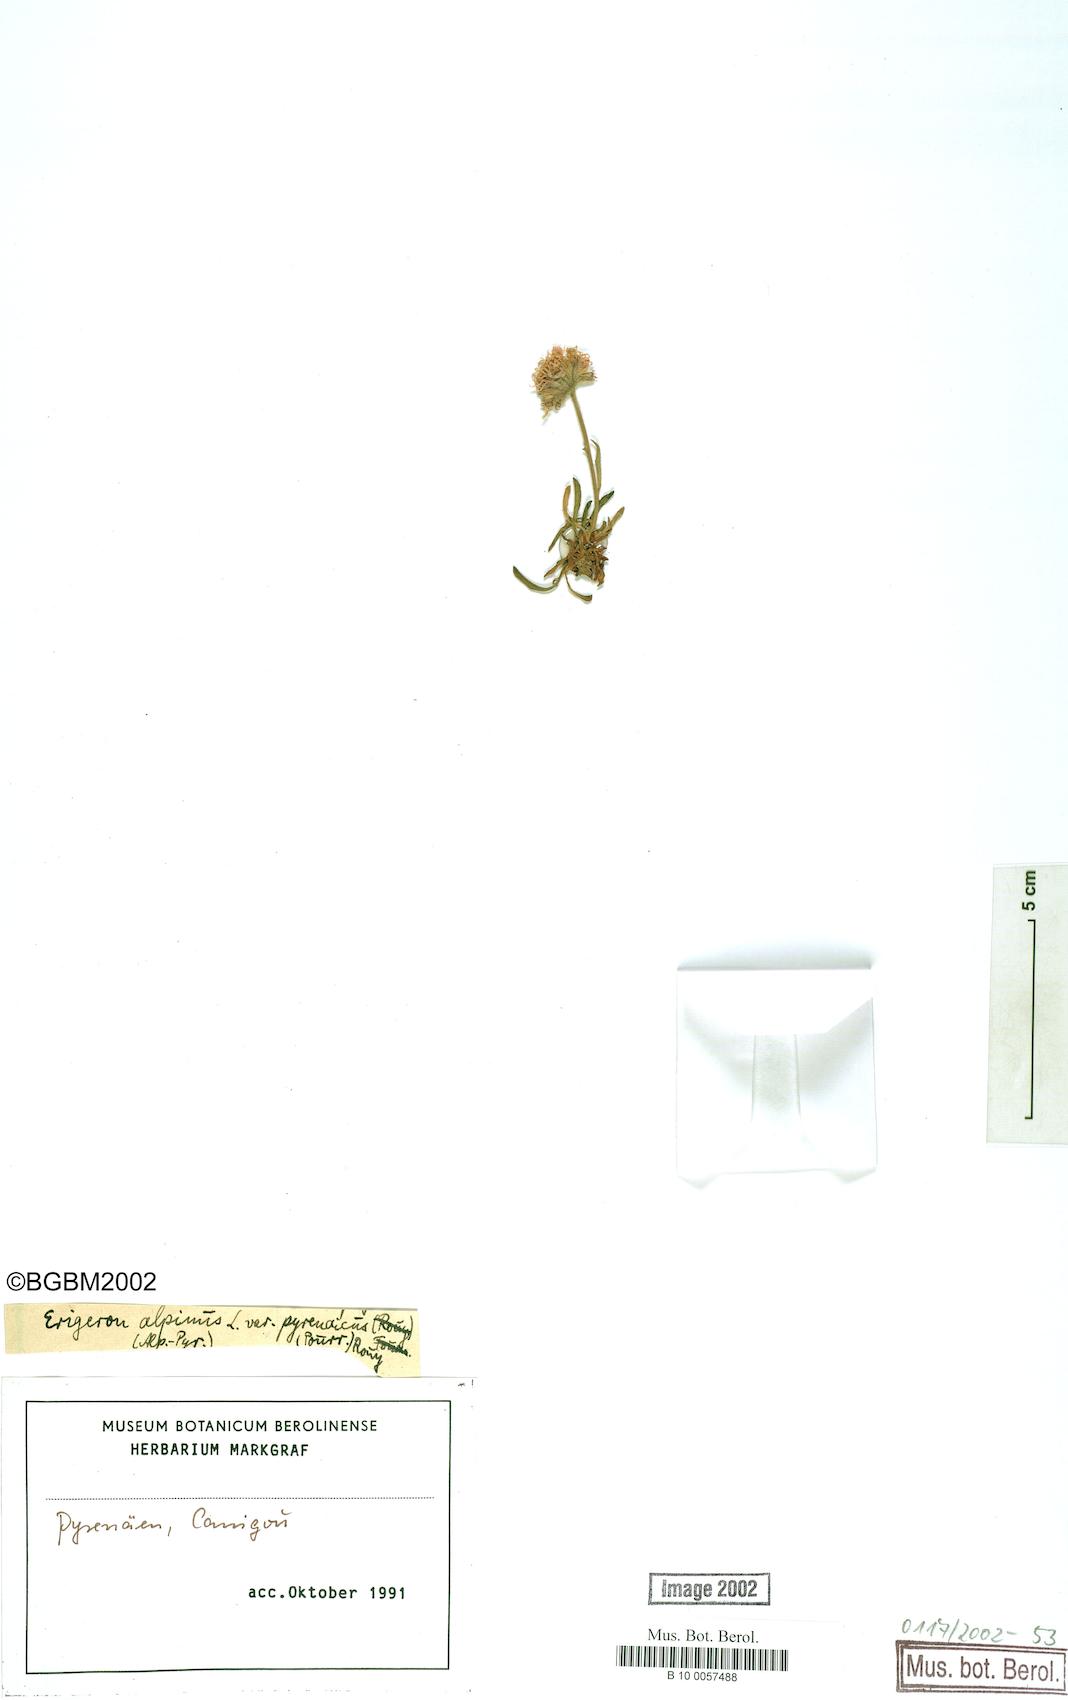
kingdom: Plantae
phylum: Tracheophyta
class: Magnoliopsida
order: Asterales
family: Asteraceae
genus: Erigeron
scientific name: Erigeron uniflorus
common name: Northern daisy
